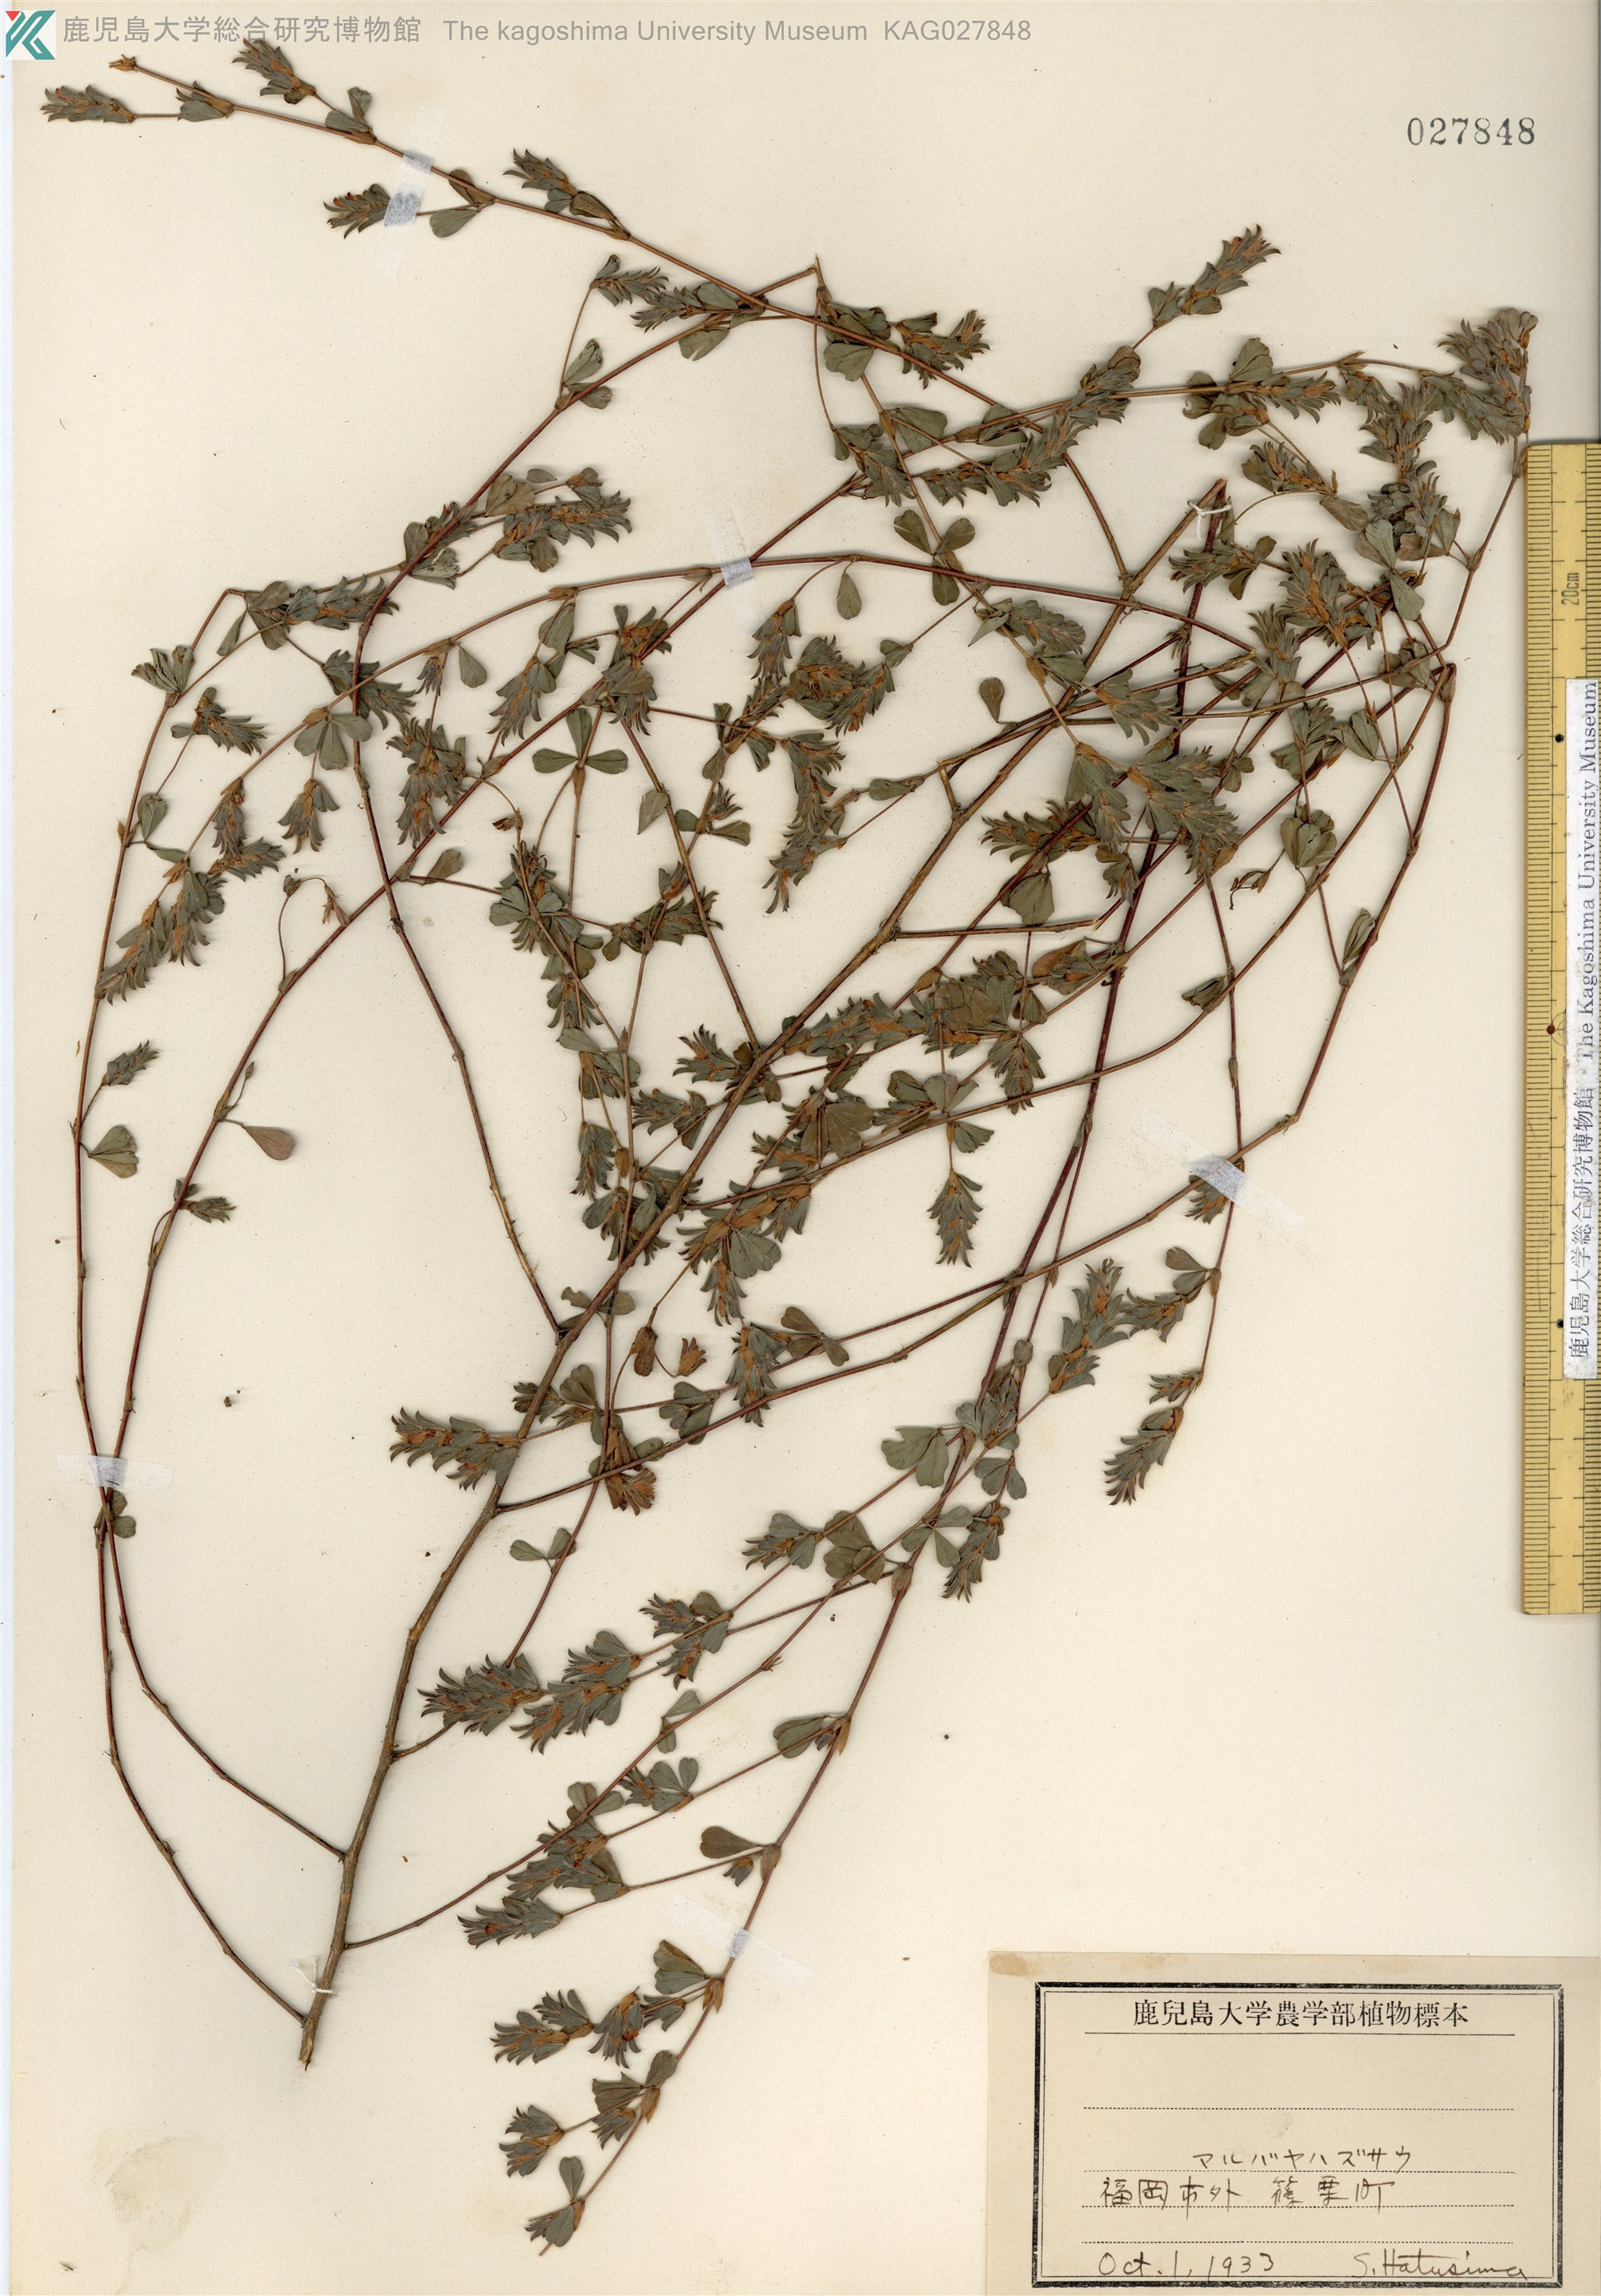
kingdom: Plantae
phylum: Tracheophyta
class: Magnoliopsida
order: Fabales
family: Fabaceae
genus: Kummerowia
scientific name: Kummerowia stipulacea
